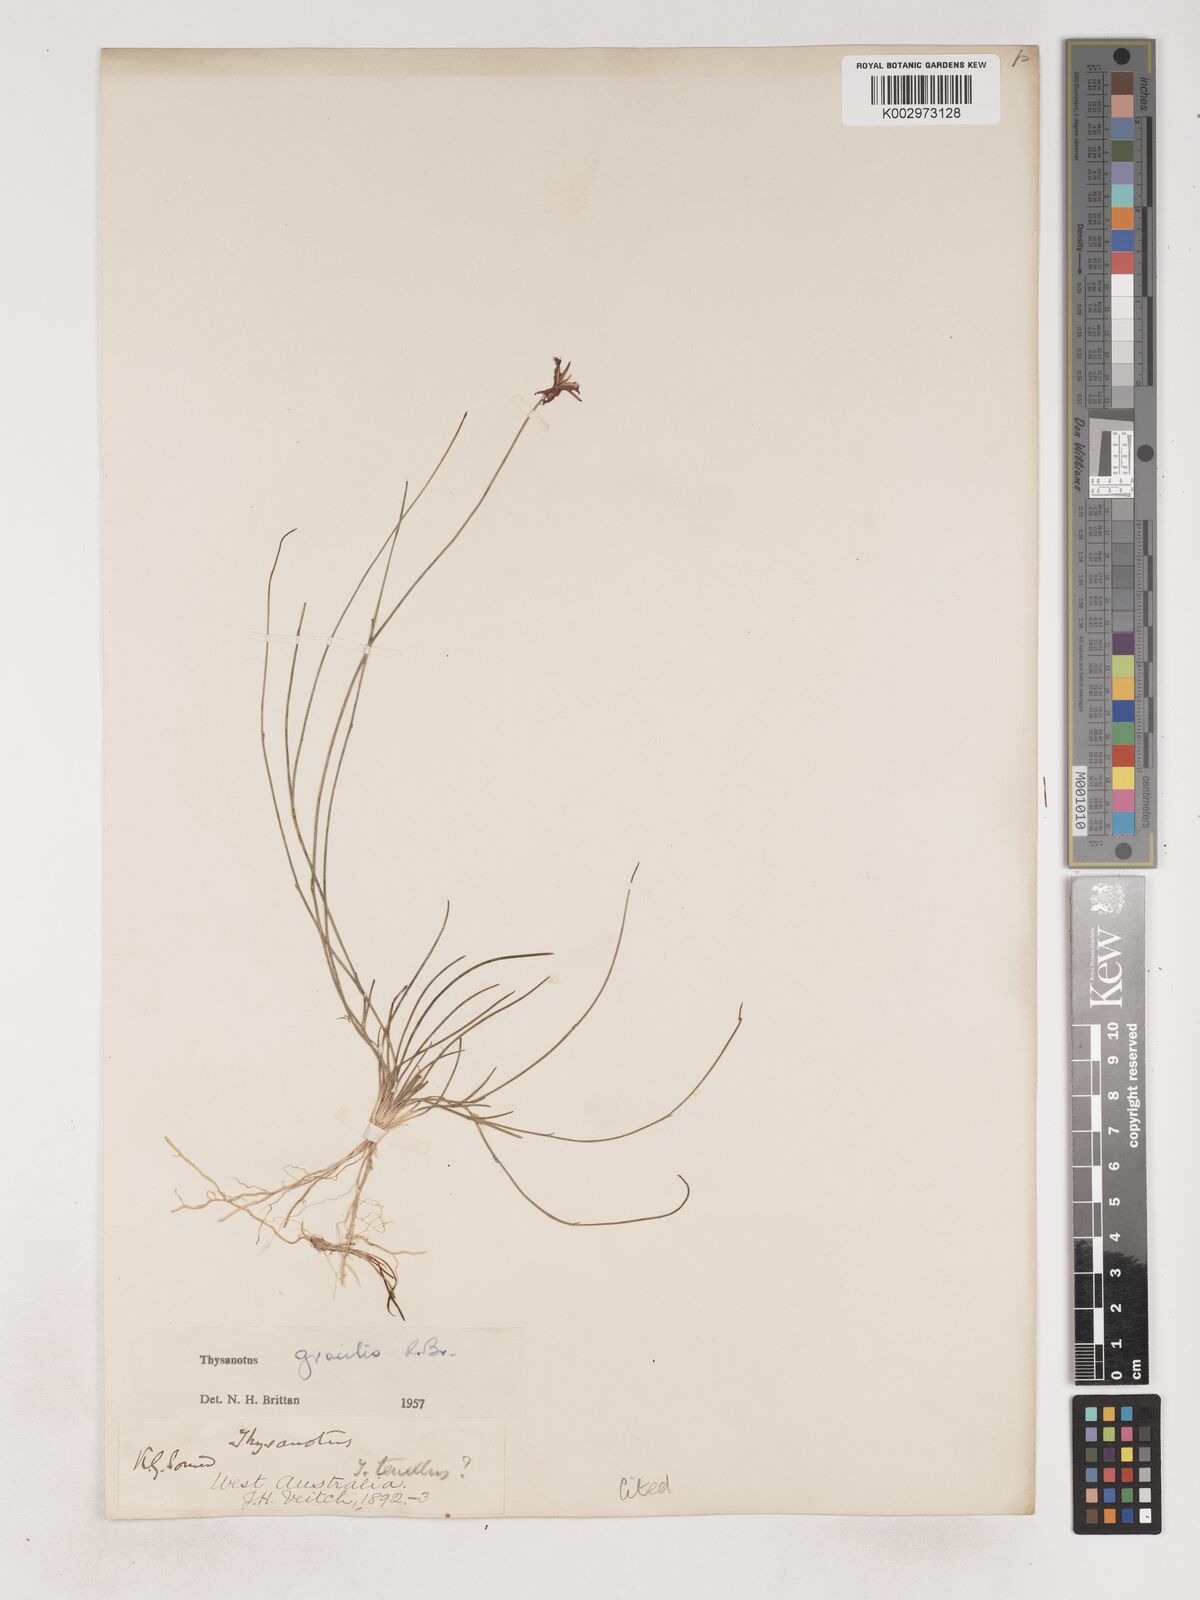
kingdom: Plantae
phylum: Tracheophyta
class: Liliopsida
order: Asparagales
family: Asparagaceae
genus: Thysanotus
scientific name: Thysanotus gracilis
